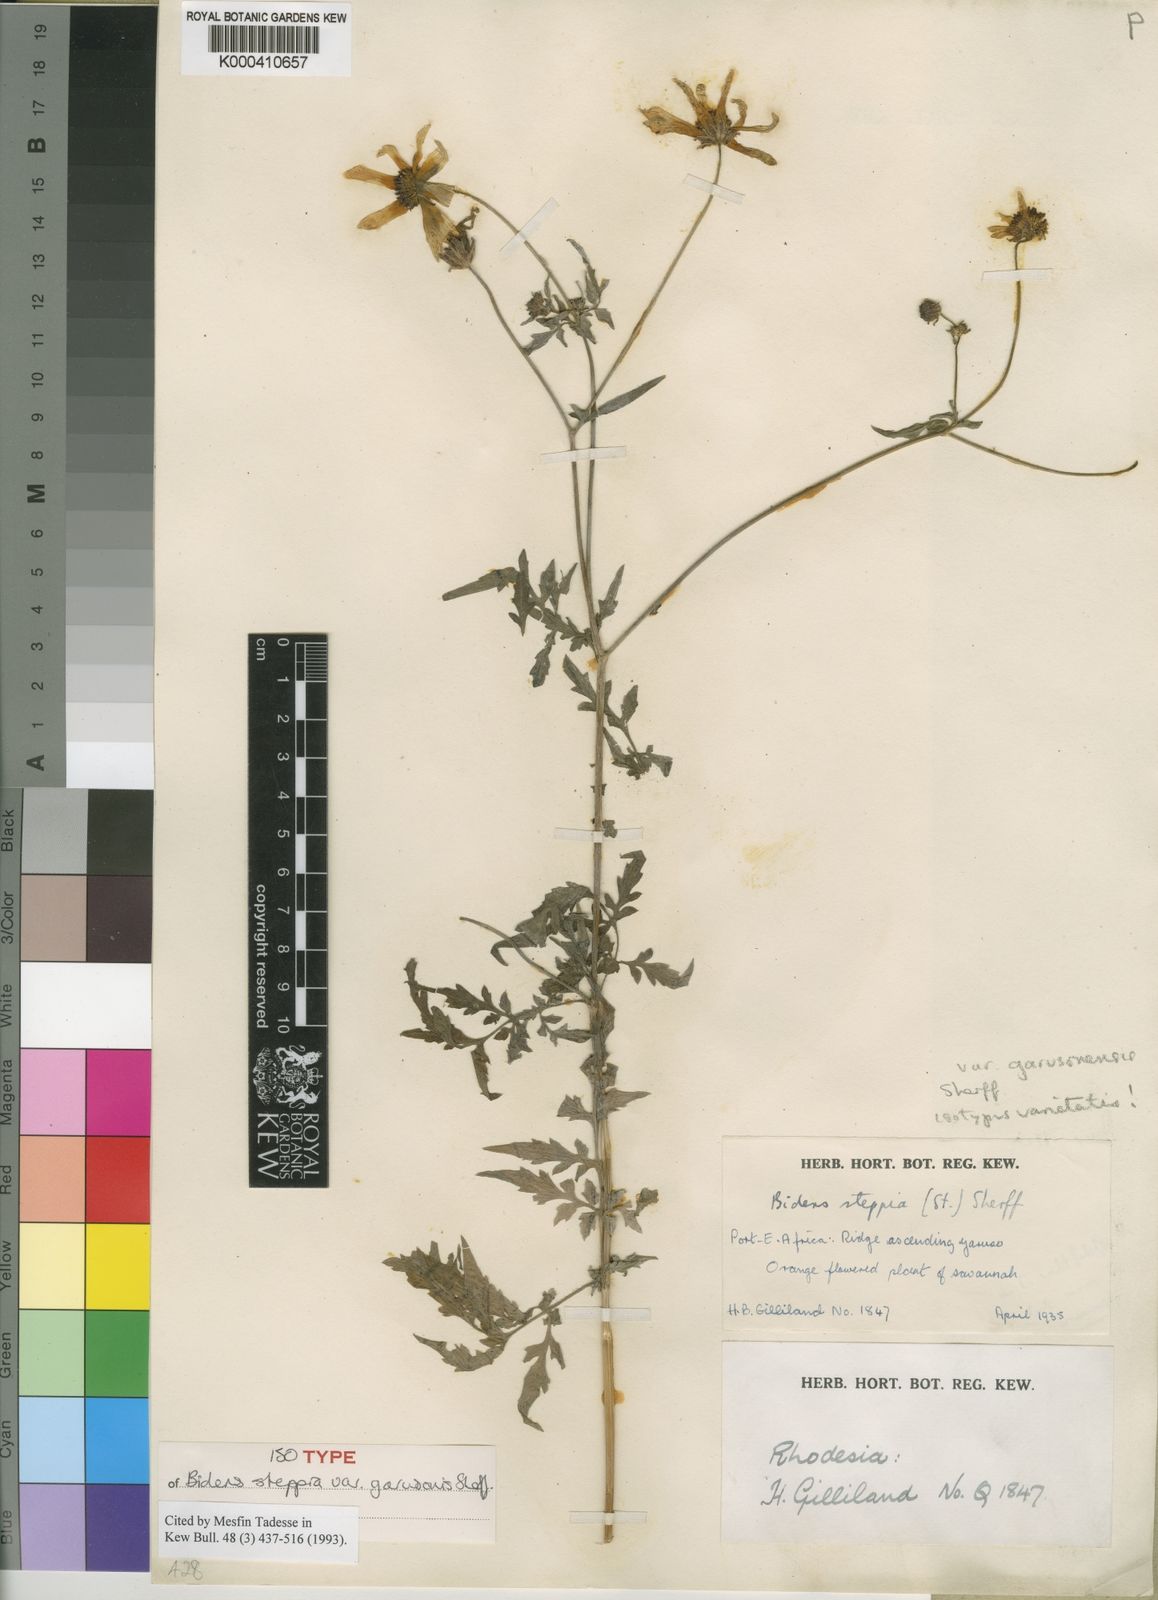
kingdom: Plantae
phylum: Tracheophyta
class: Magnoliopsida
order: Asterales
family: Asteraceae
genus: Bidens
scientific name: Bidens steppia
